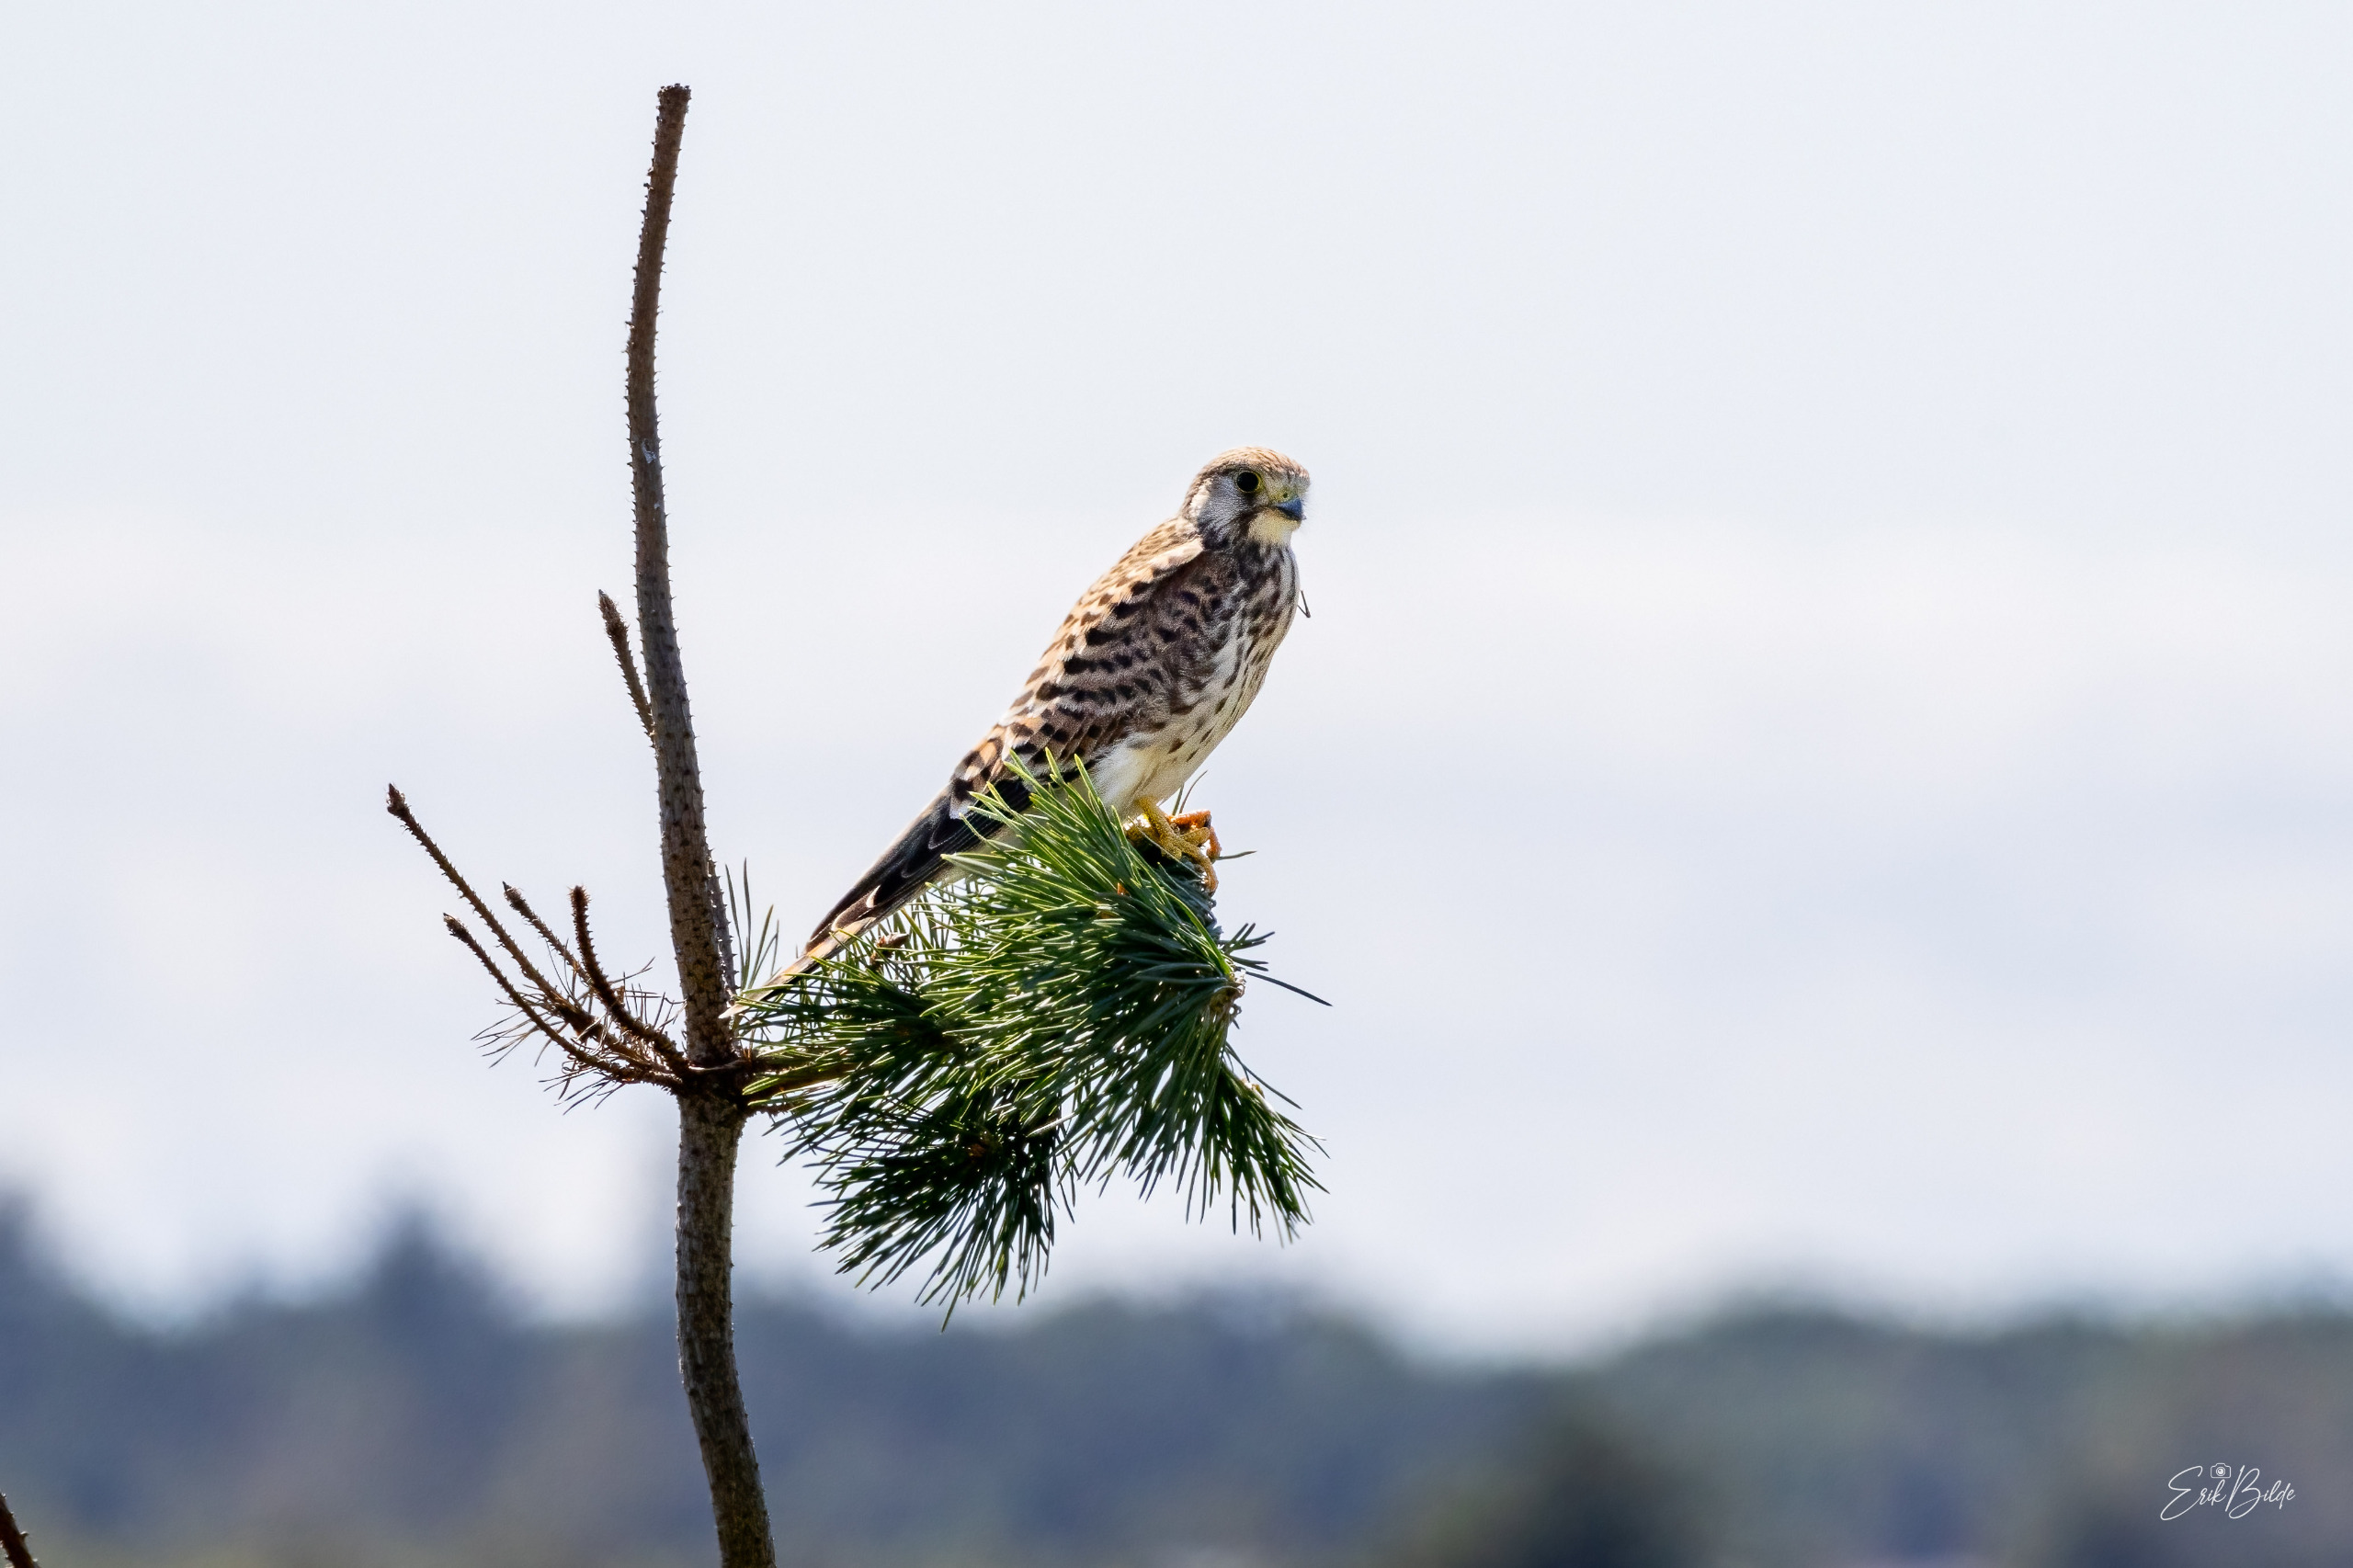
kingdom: Animalia
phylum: Chordata
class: Aves
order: Falconiformes
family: Falconidae
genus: Falco
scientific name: Falco tinnunculus
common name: Tårnfalk
